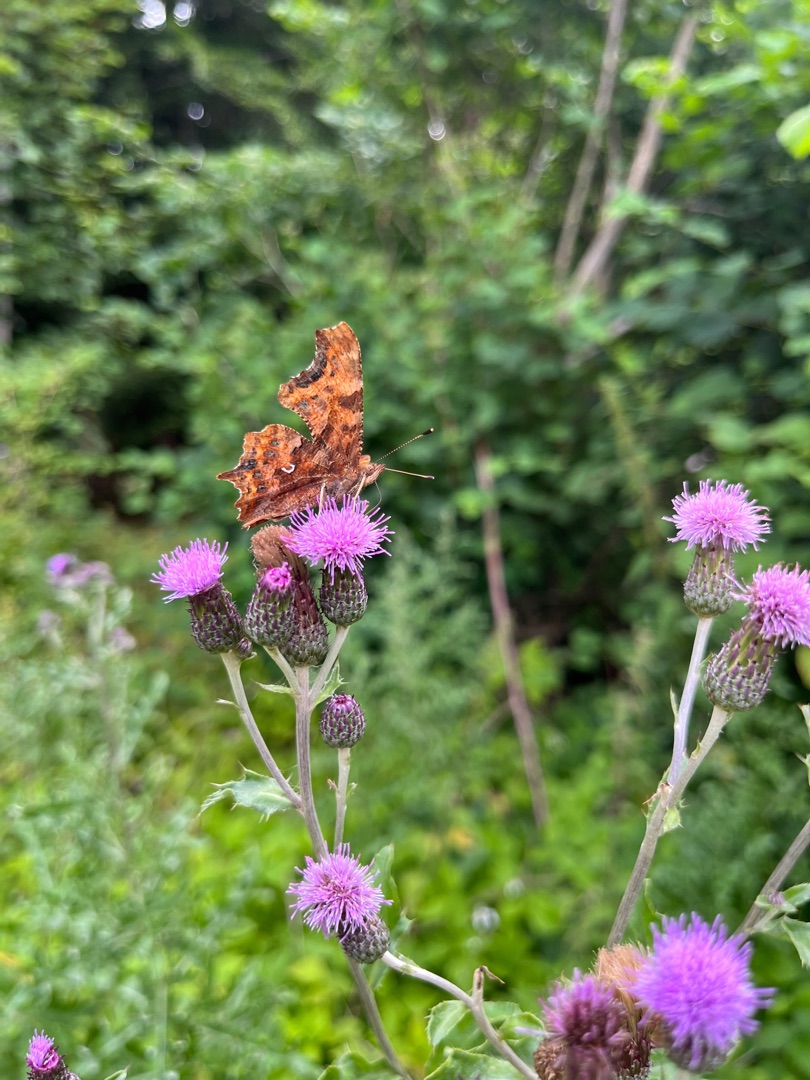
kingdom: Animalia
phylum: Arthropoda
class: Insecta
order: Lepidoptera
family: Nymphalidae
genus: Polygonia
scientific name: Polygonia c-album
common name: Det hvide C
